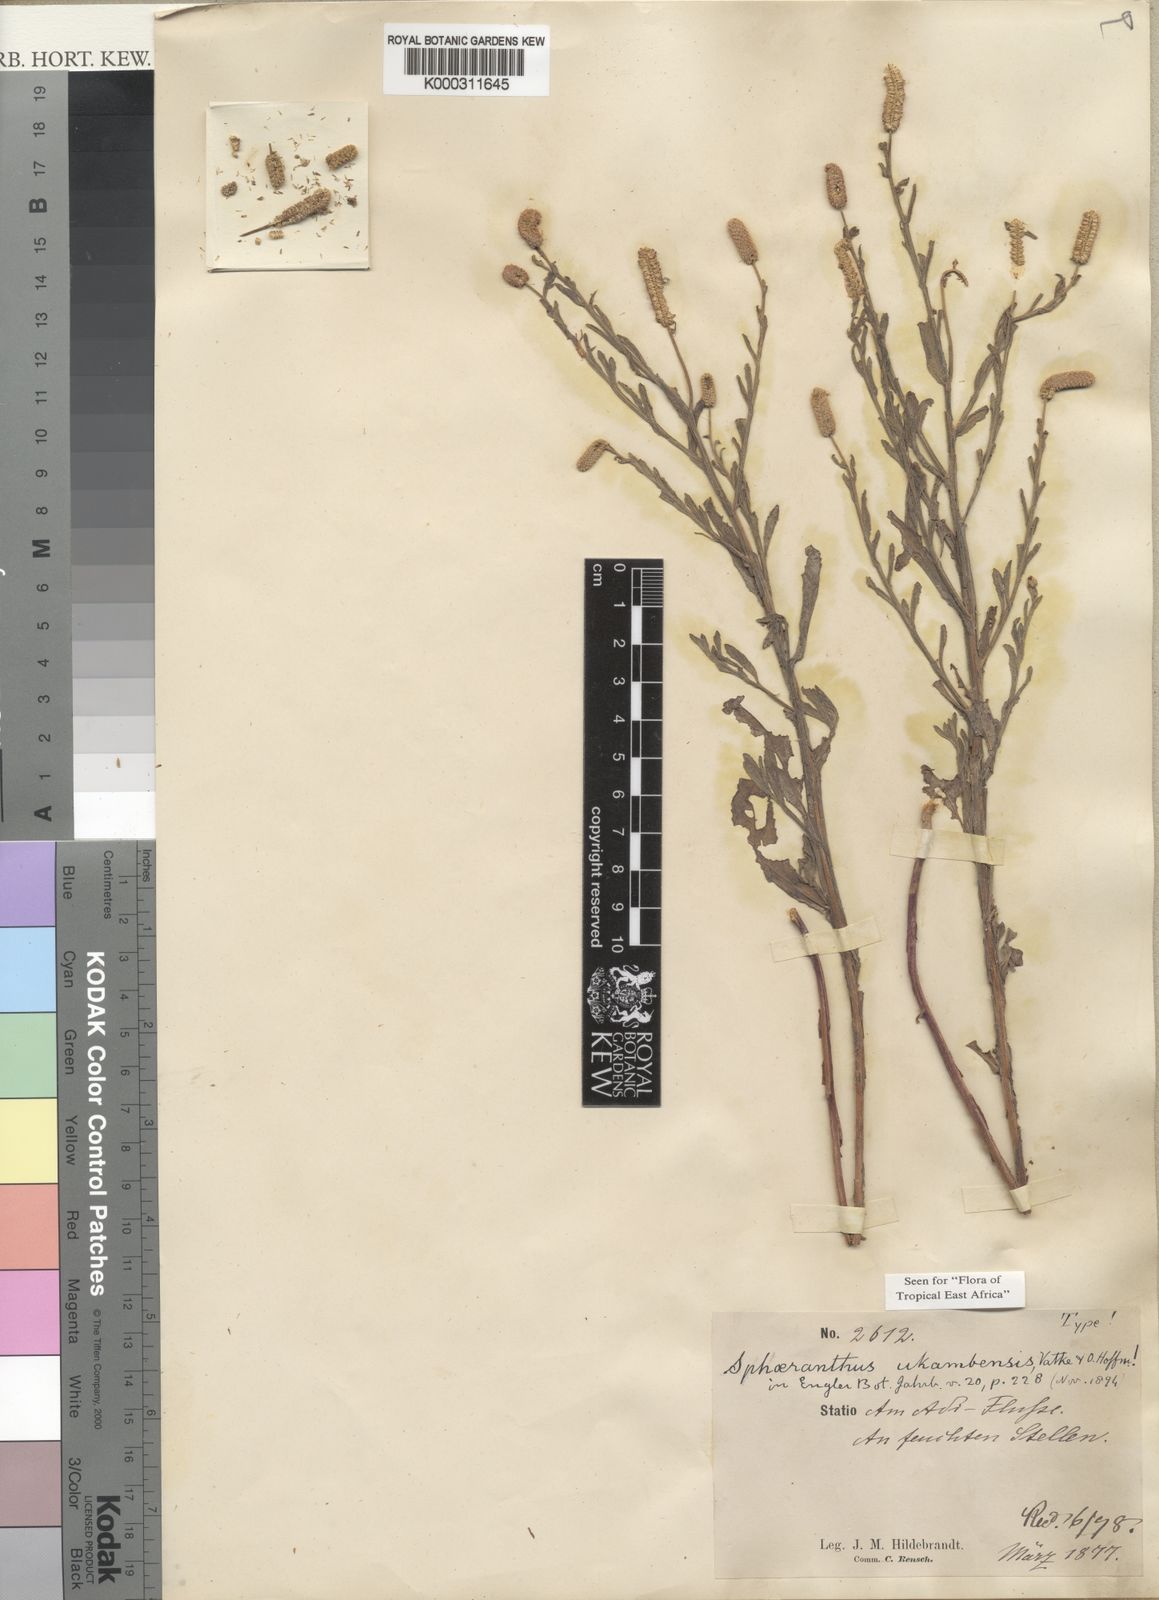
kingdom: Plantae
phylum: Tracheophyta
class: Magnoliopsida
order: Asterales
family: Asteraceae
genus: Sphaeranthus
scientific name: Sphaeranthus ukambensis
